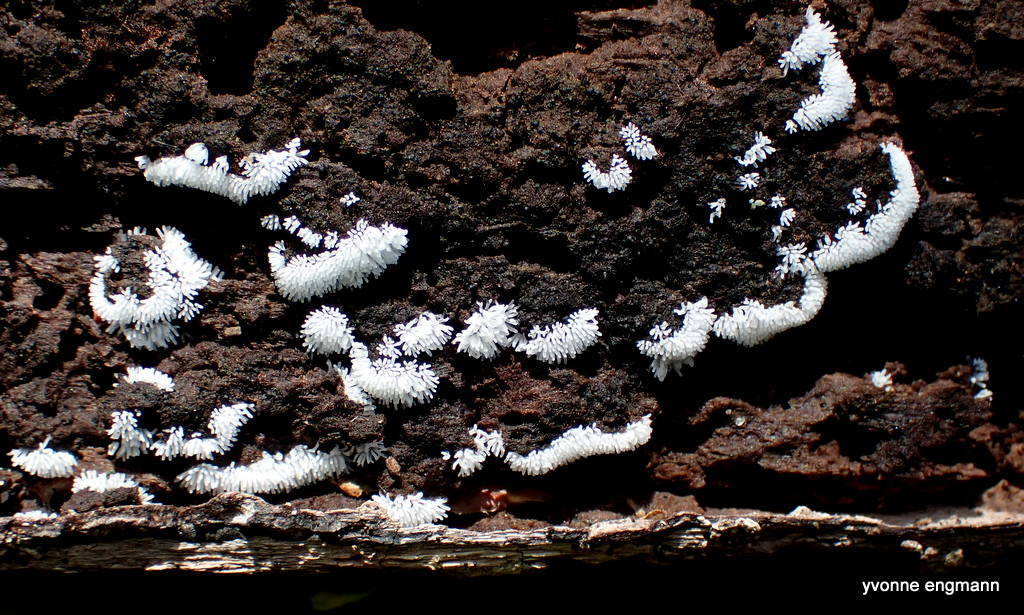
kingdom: Protozoa
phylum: Mycetozoa
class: Protosteliomycetes
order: Ceratiomyxales
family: Ceratiomyxaceae
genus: Ceratiomyxa
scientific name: Ceratiomyxa fruticulosa
